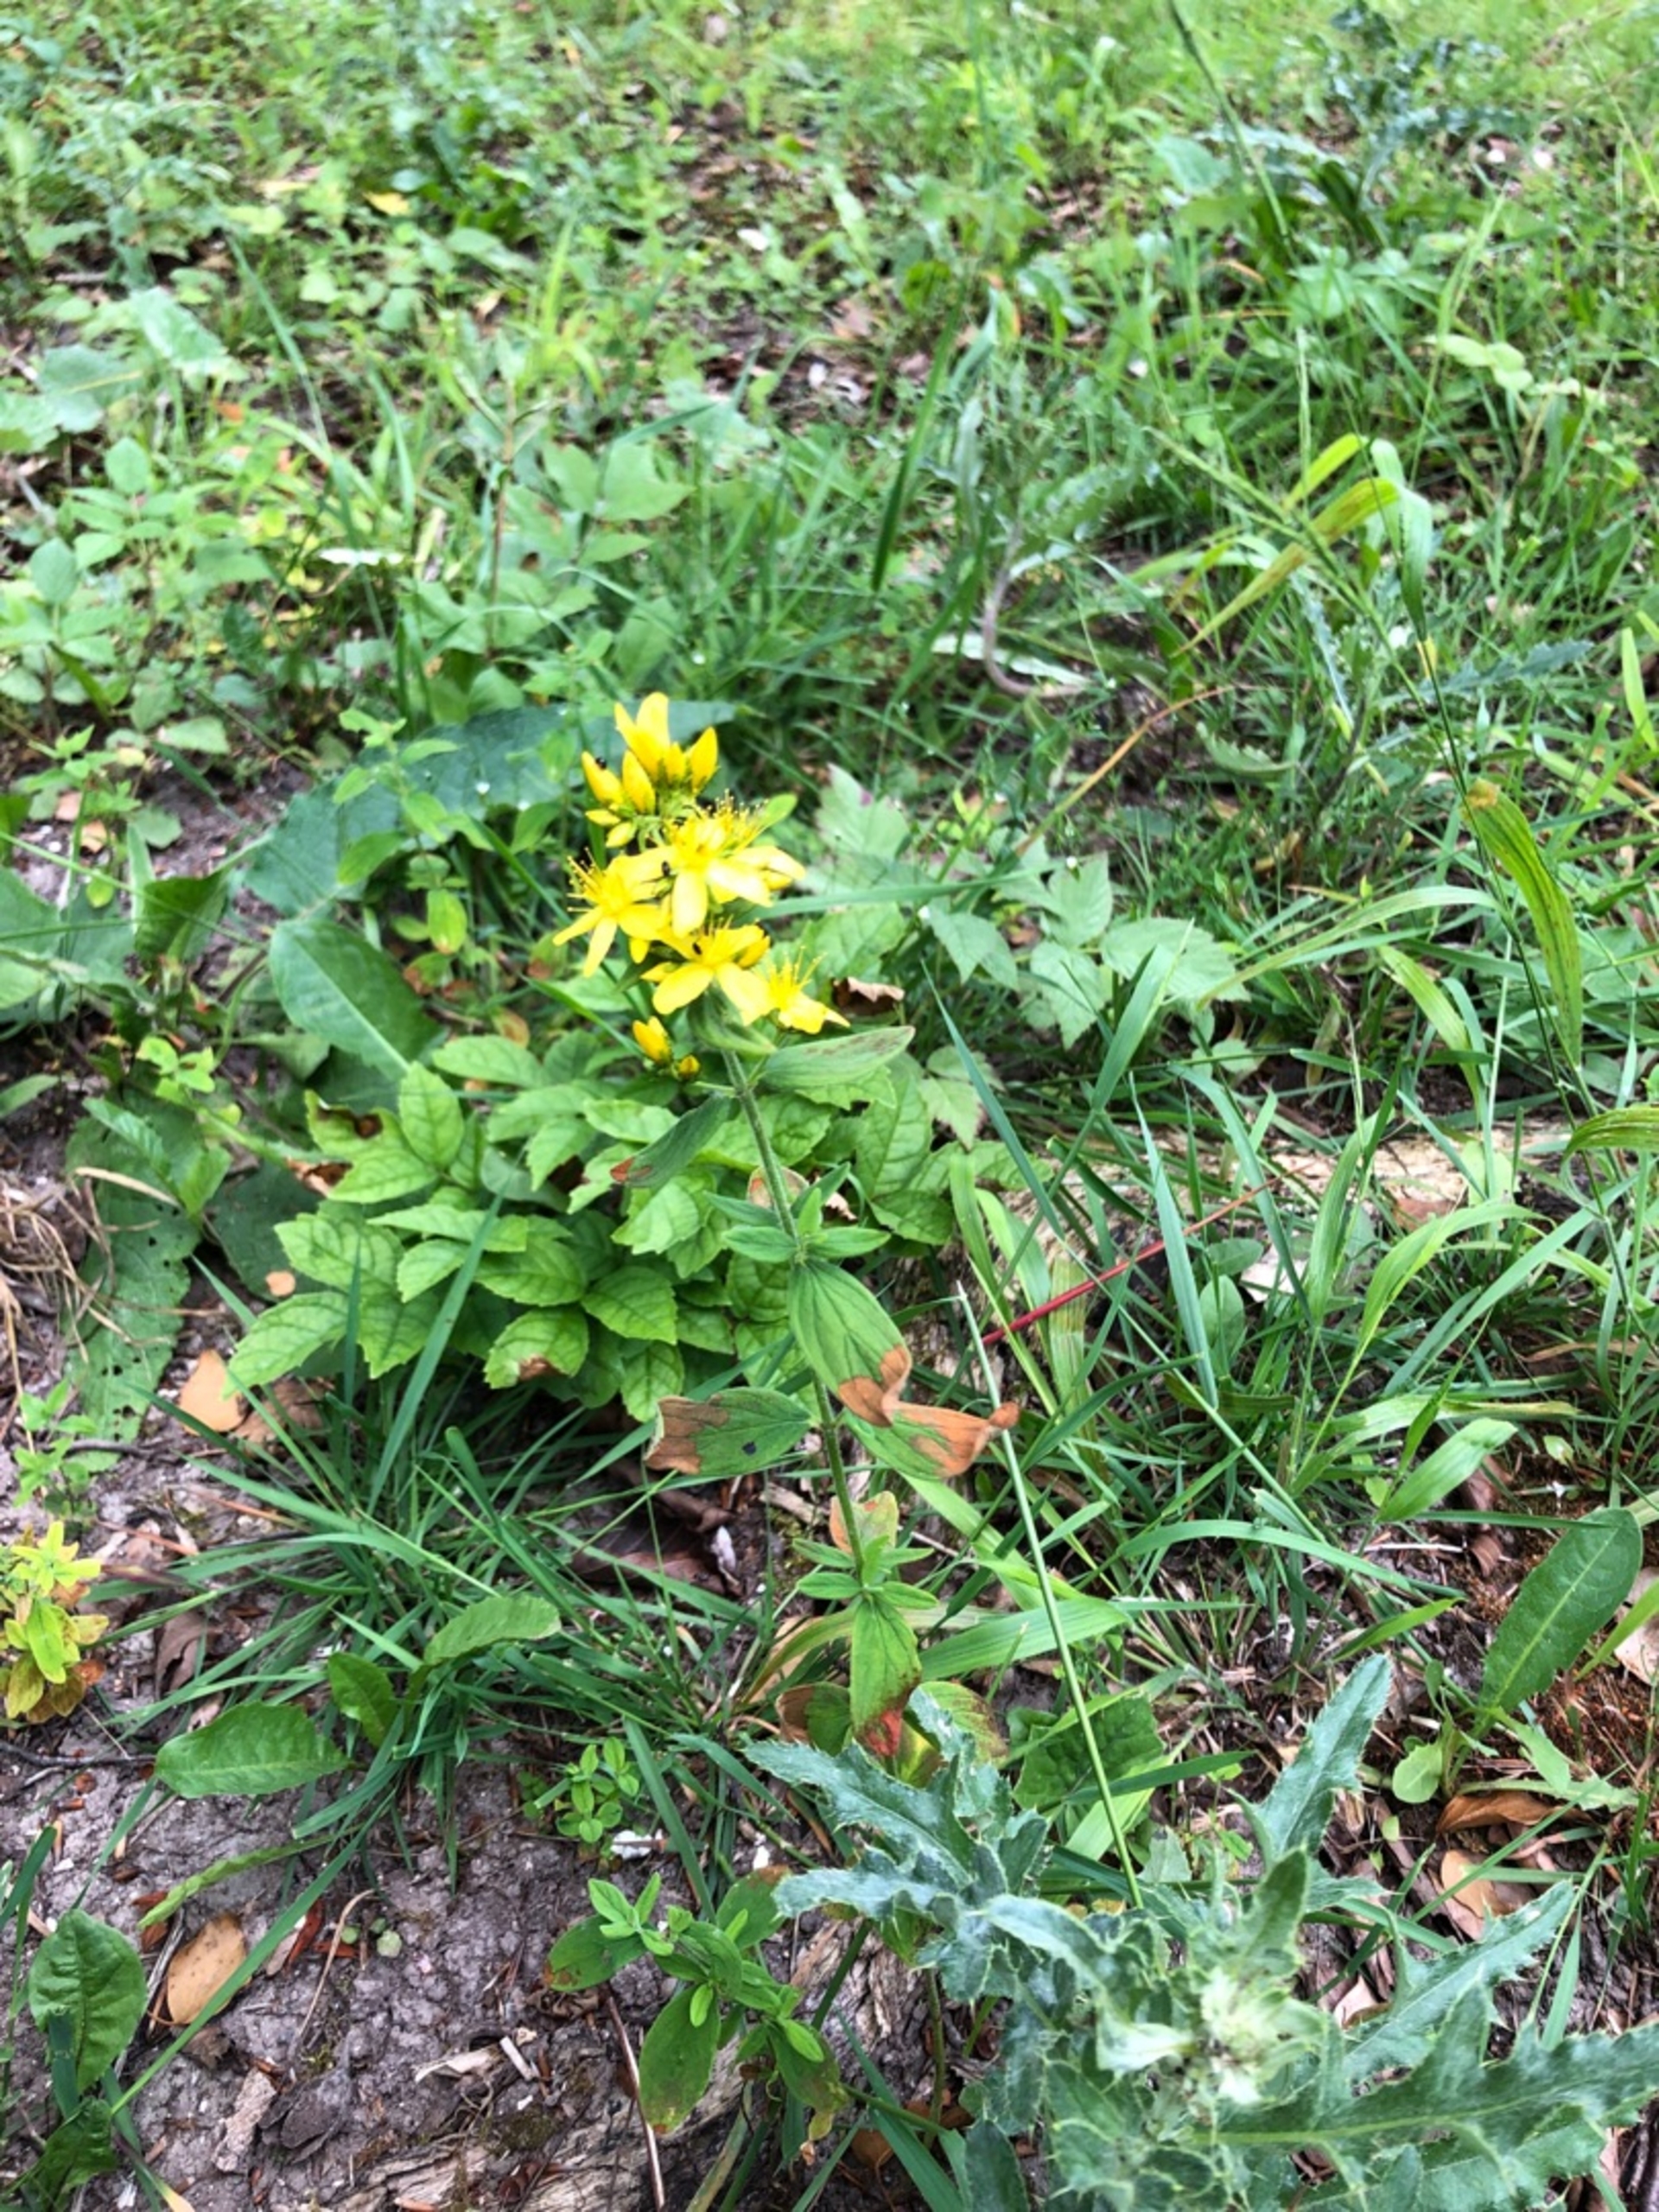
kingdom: Plantae
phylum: Tracheophyta
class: Magnoliopsida
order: Malpighiales
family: Hypericaceae
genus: Hypericum
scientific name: Hypericum hirsutum
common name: Lådden perikon
